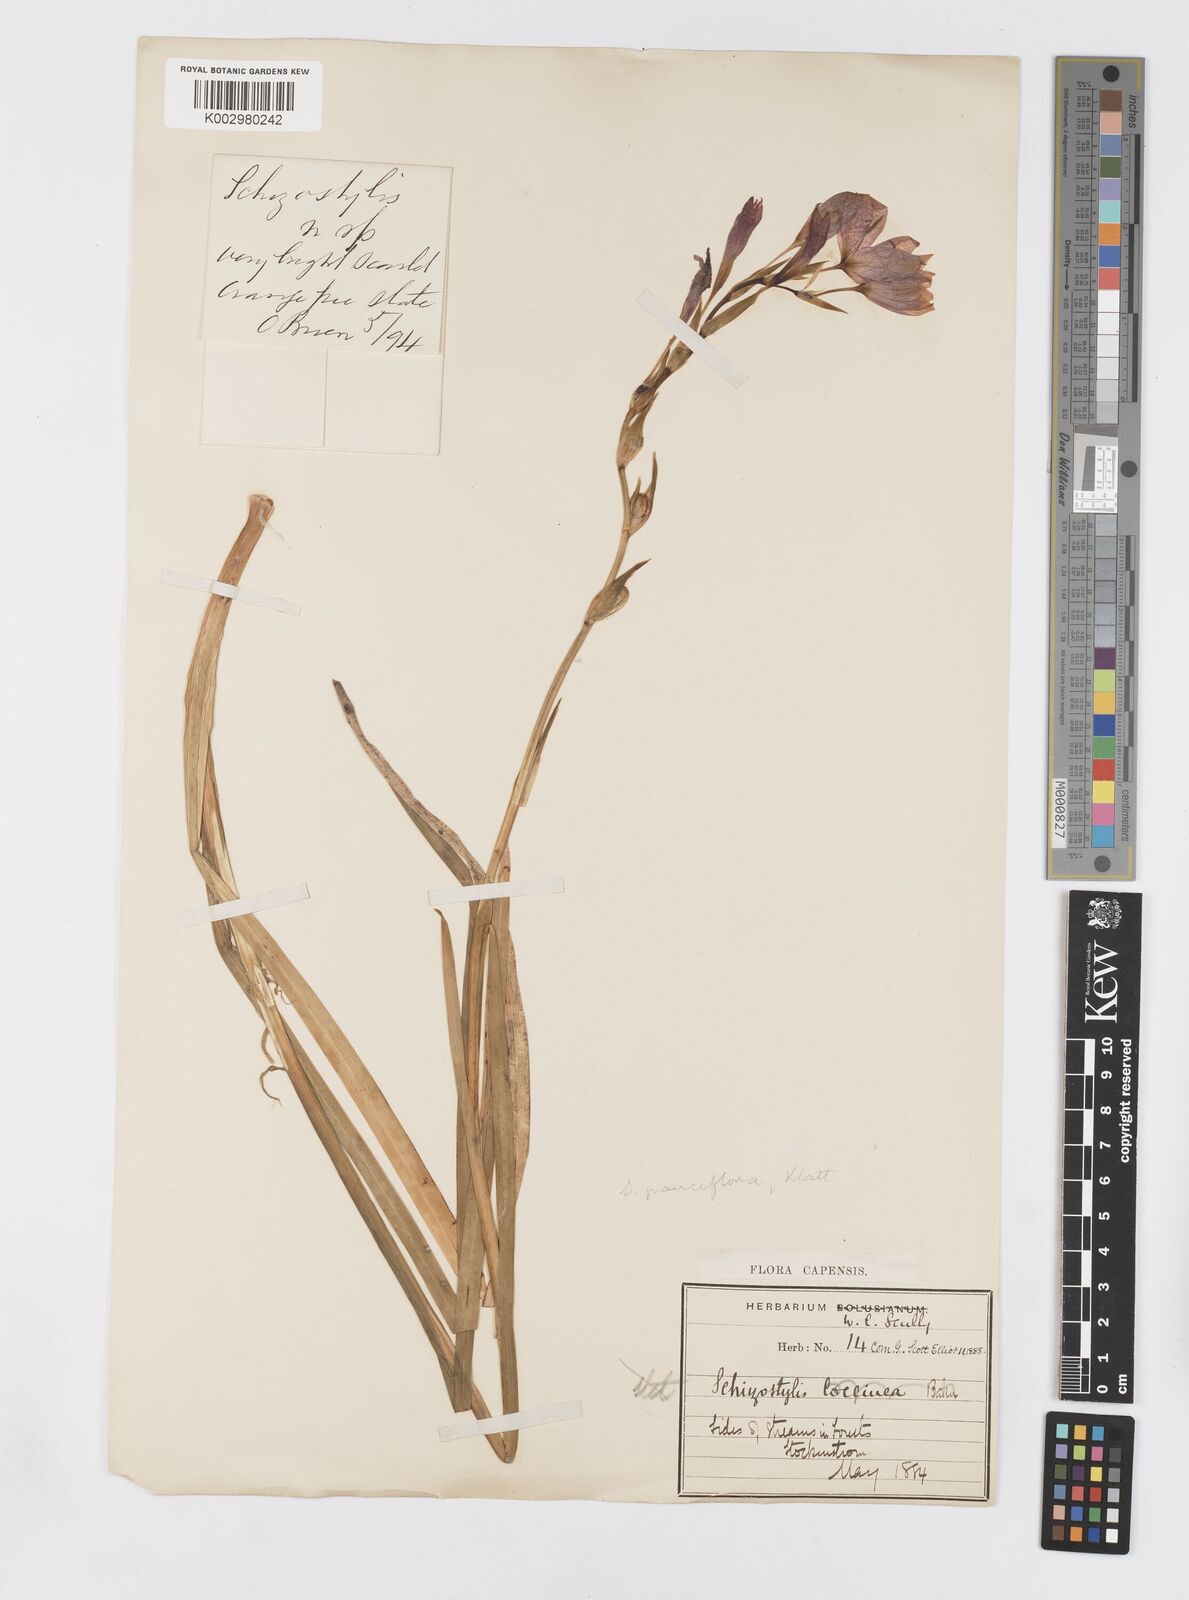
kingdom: Plantae
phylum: Tracheophyta
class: Liliopsida
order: Asparagales
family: Iridaceae
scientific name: Iridaceae
